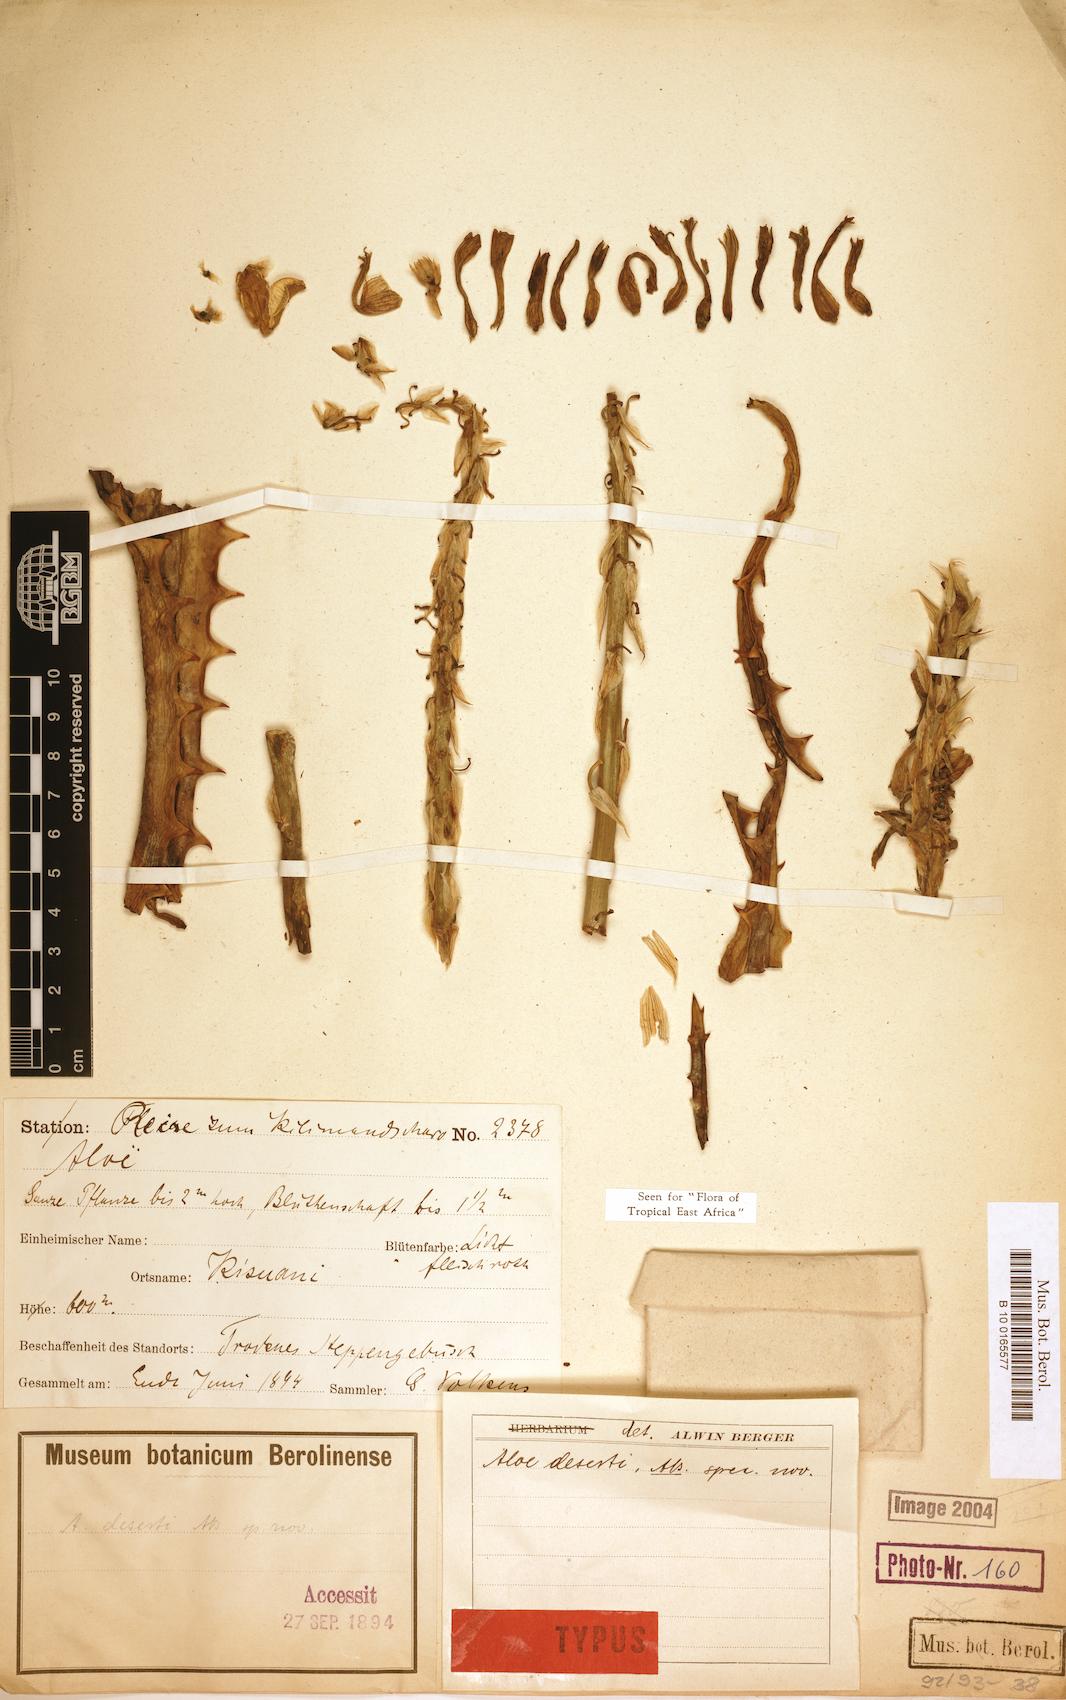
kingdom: Plantae
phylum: Tracheophyta
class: Liliopsida
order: Asparagales
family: Asphodelaceae
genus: Aloe
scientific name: Aloe deserti
